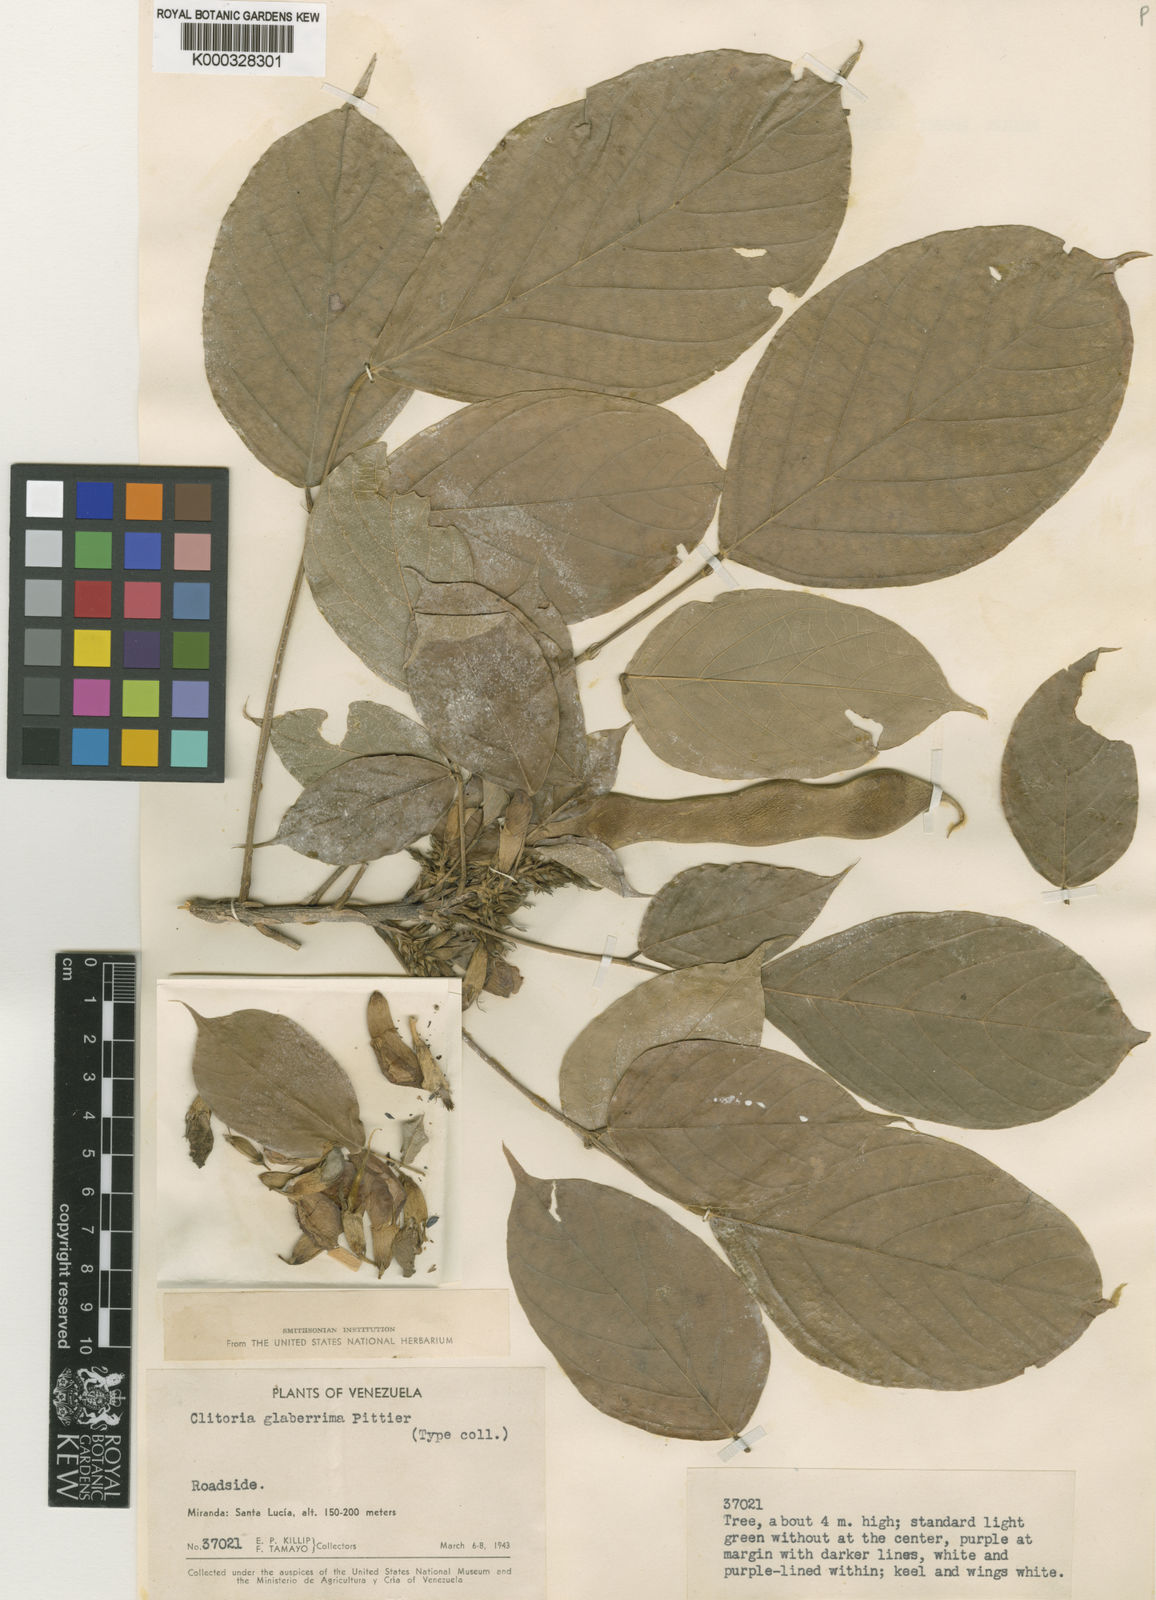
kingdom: Plantae
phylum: Tracheophyta
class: Magnoliopsida
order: Fabales
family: Fabaceae
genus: Clitoria
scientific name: Clitoria glaberrima
